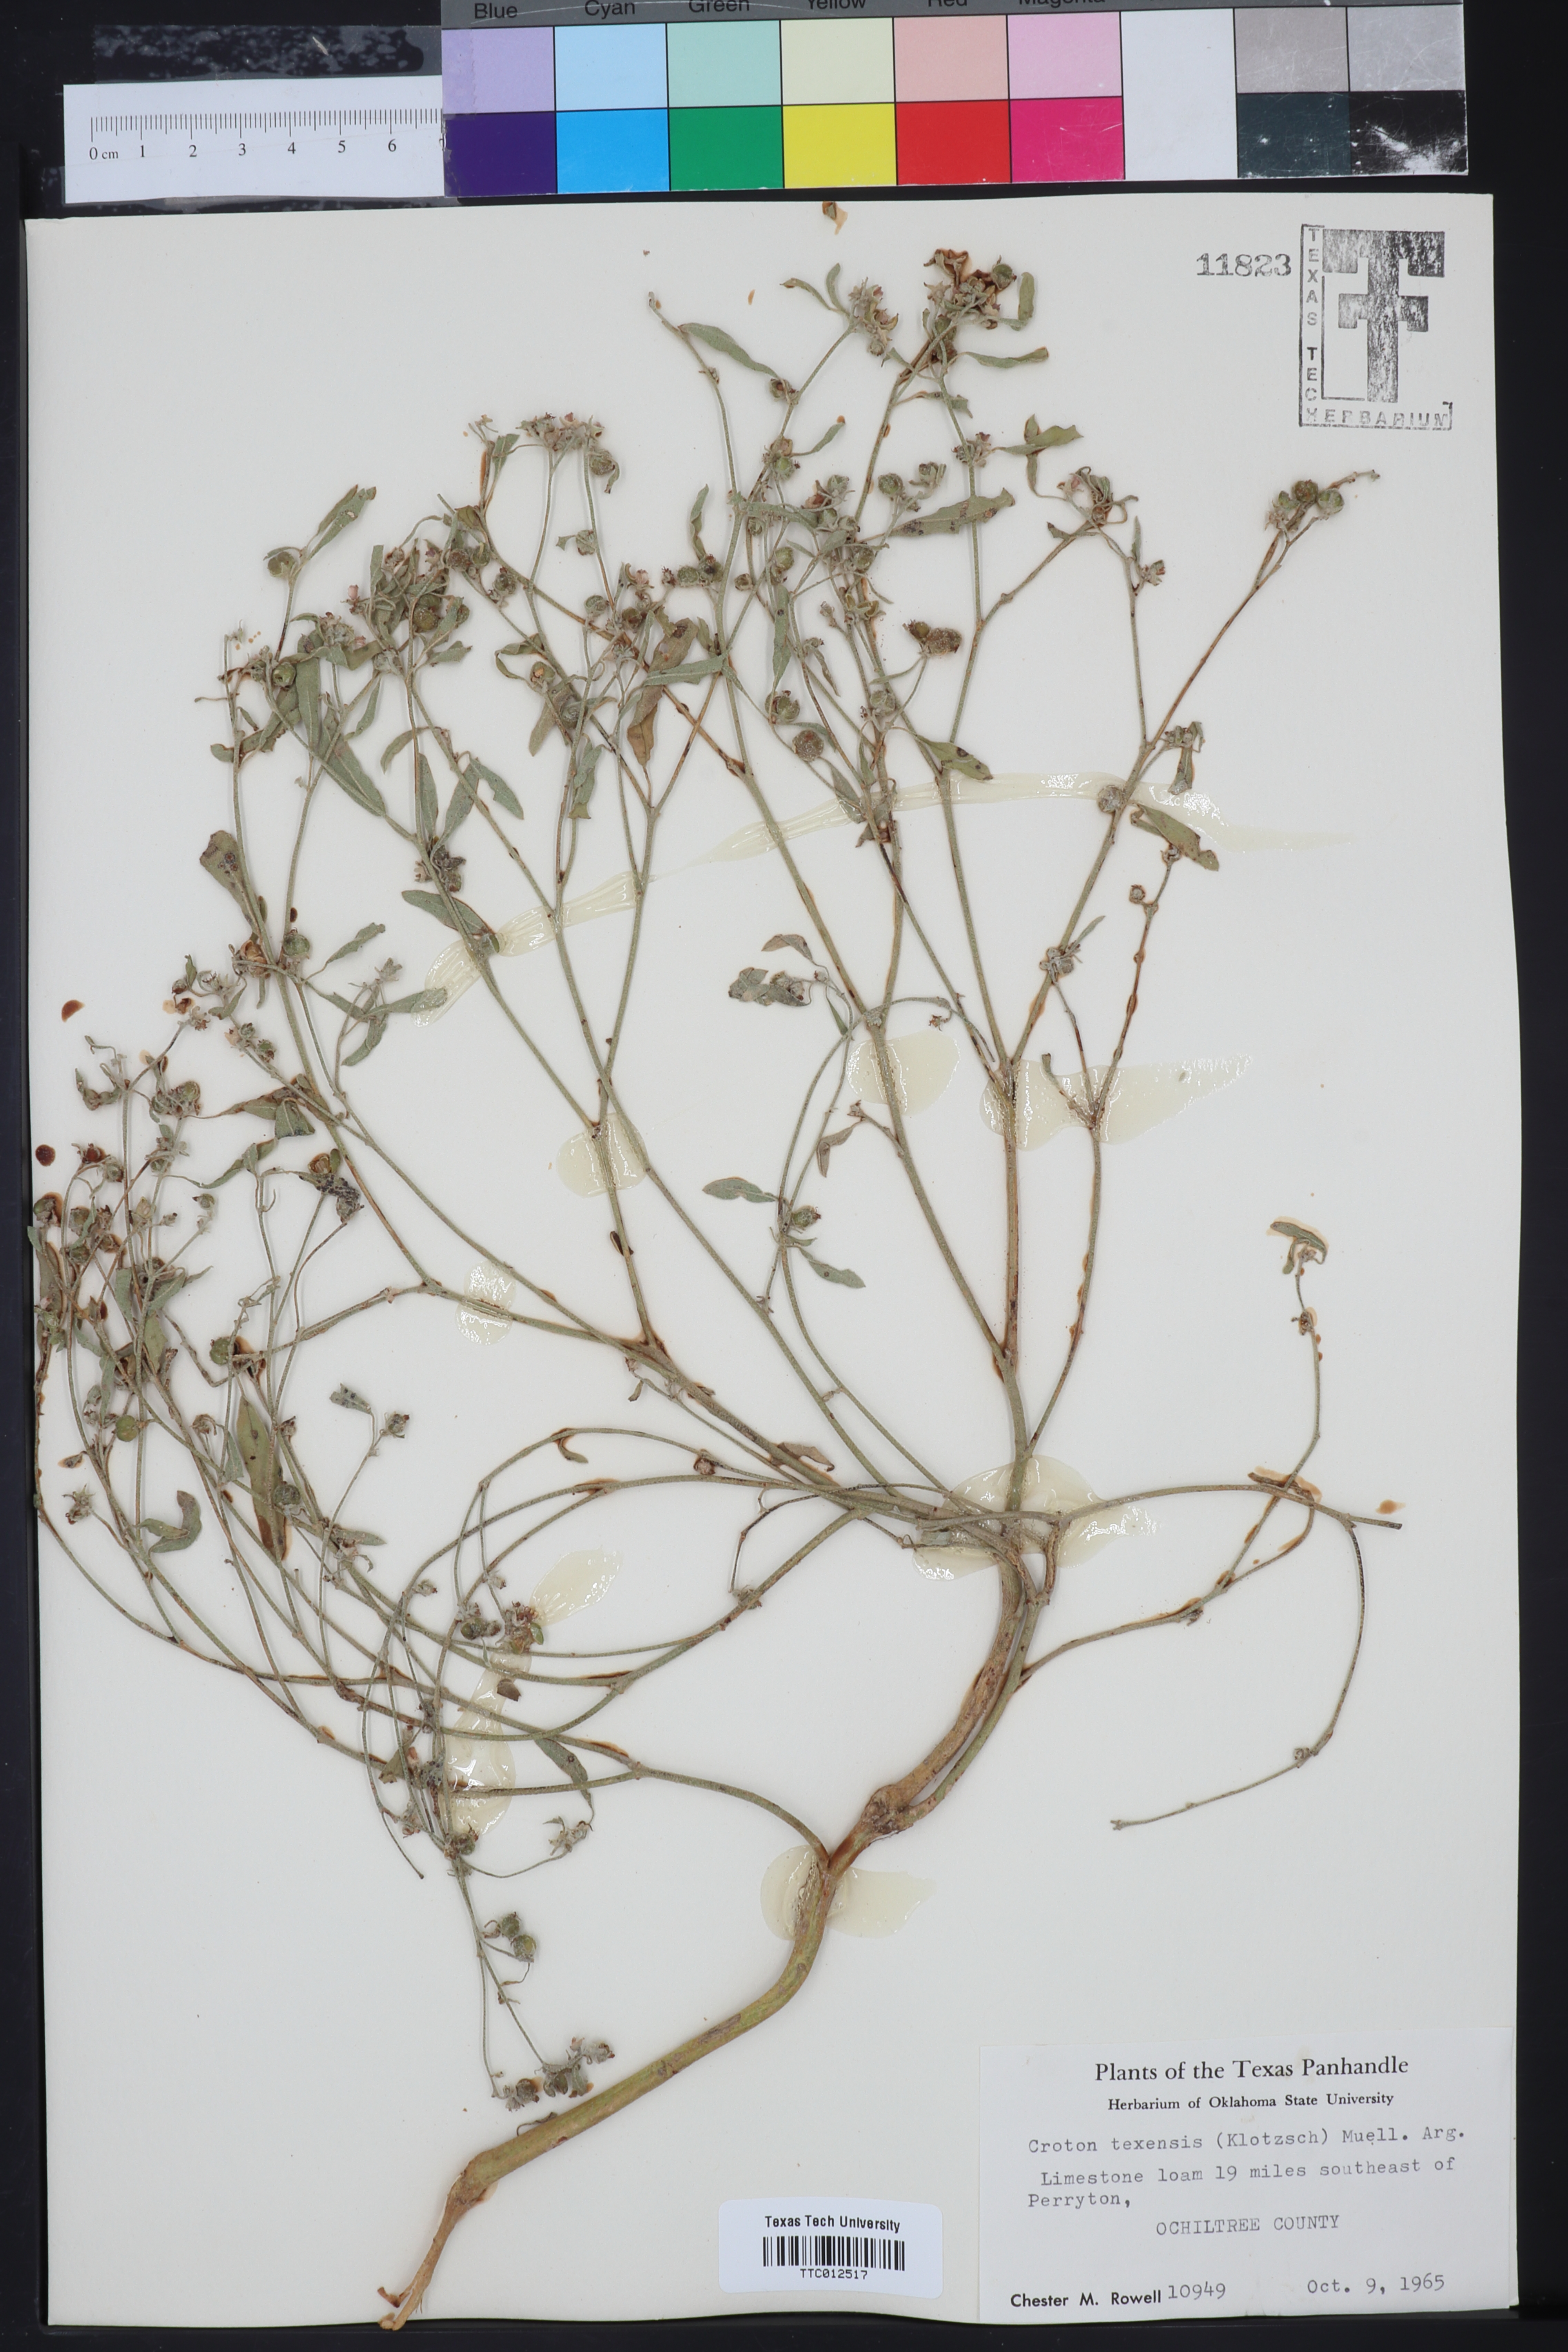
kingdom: Plantae
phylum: Tracheophyta
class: Magnoliopsida
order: Malpighiales
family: Euphorbiaceae
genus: Croton
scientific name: Croton texensis
